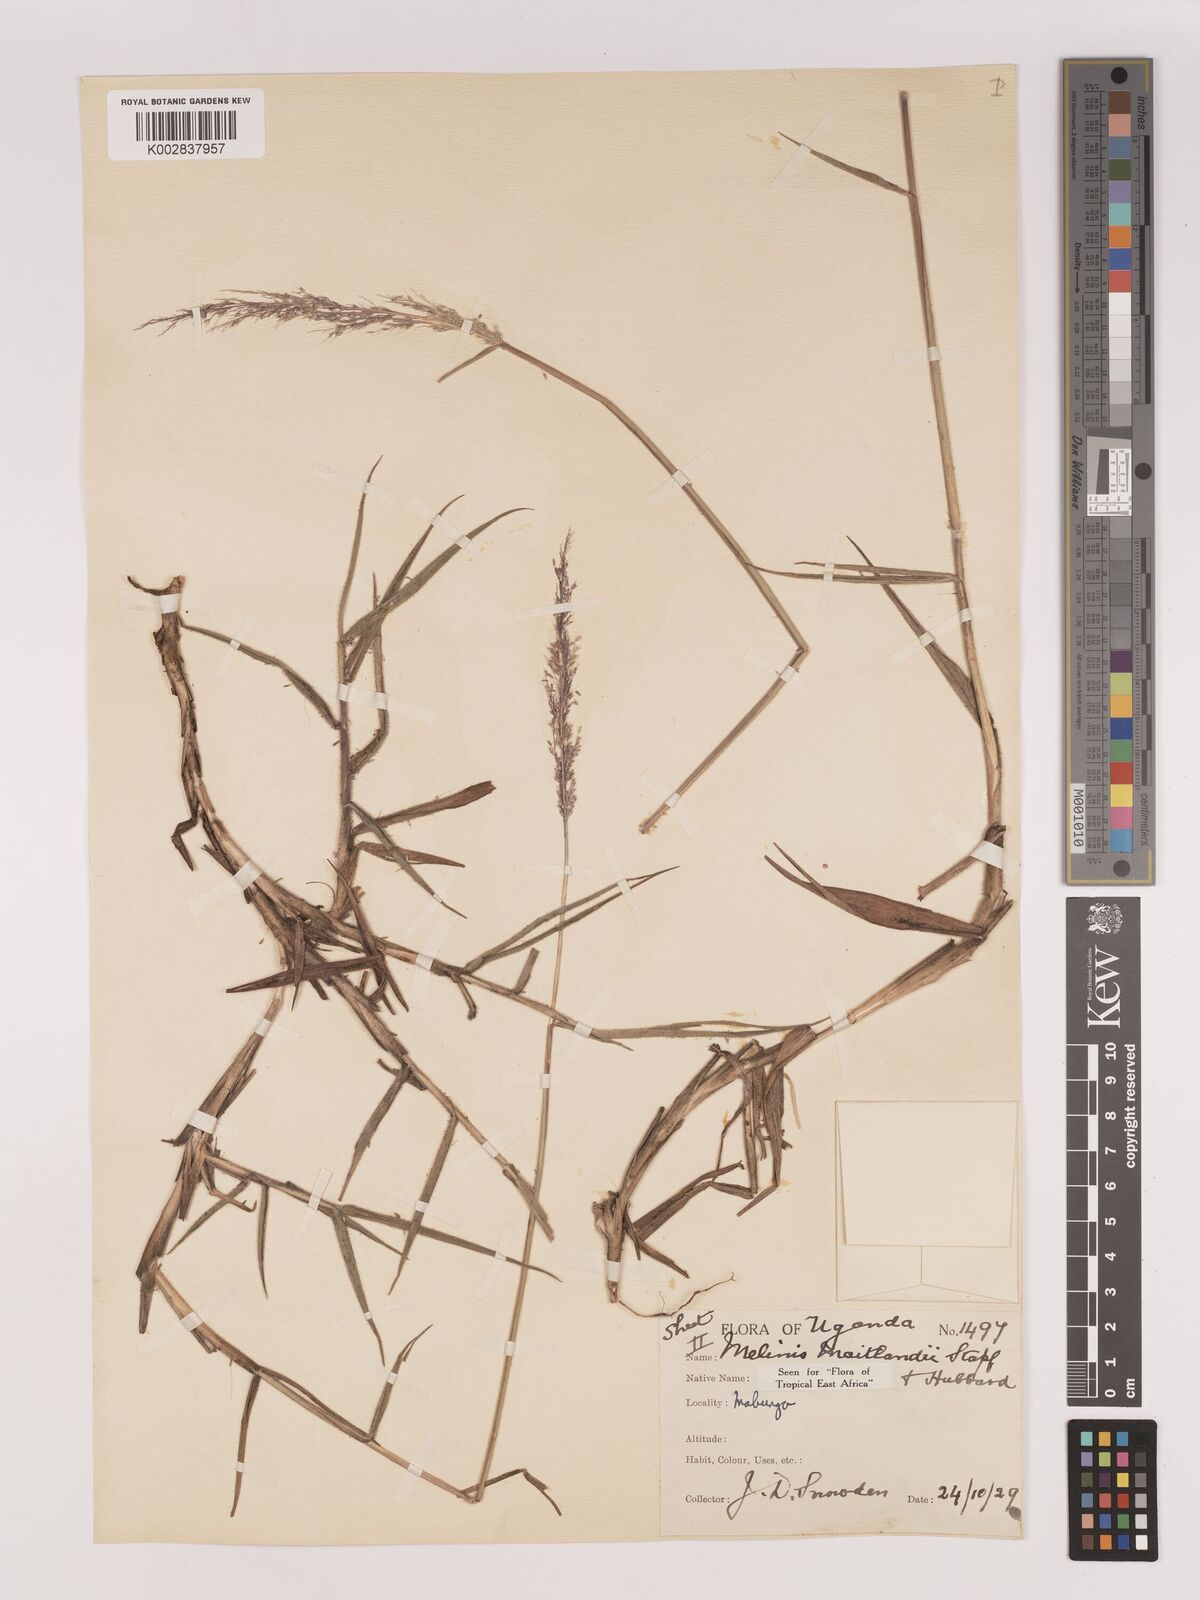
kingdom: Plantae
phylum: Tracheophyta
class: Liliopsida
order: Poales
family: Poaceae
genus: Melinis
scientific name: Melinis minutiflora
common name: Molassesgrass
